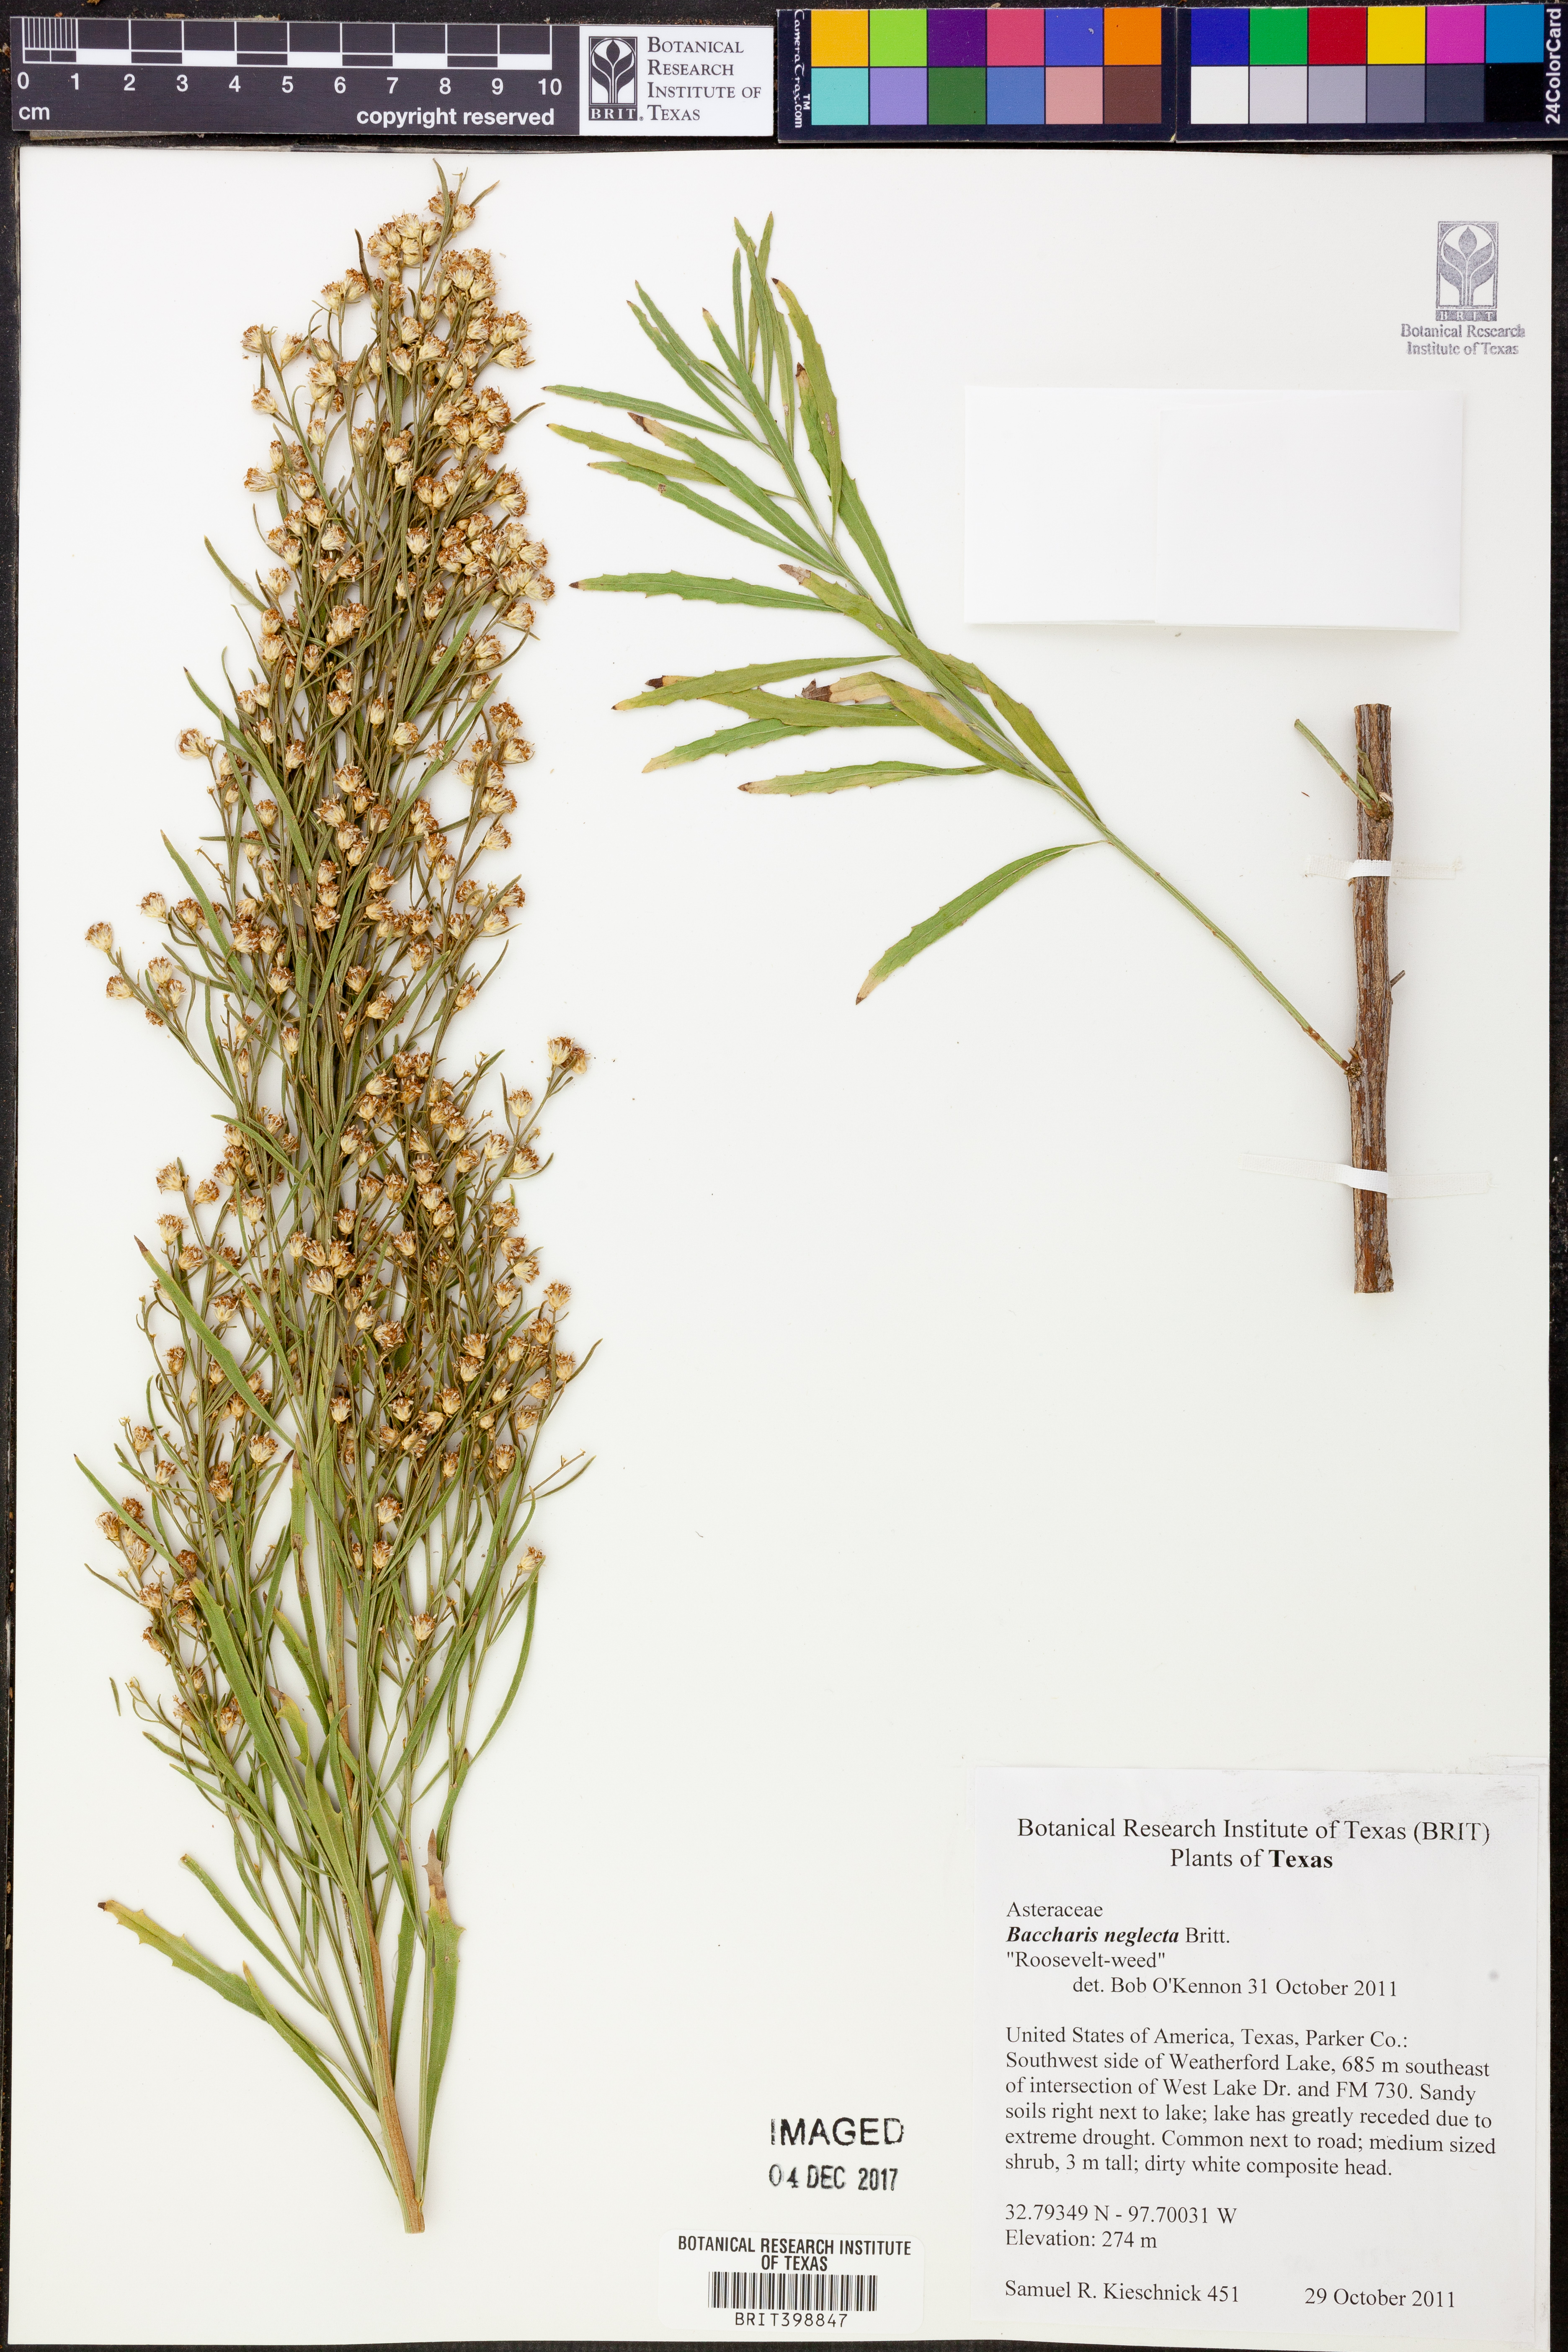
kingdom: Plantae
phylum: Tracheophyta
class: Magnoliopsida
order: Asterales
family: Asteraceae
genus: Baccharis
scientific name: Baccharis neglecta
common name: Roosevelt-weed
